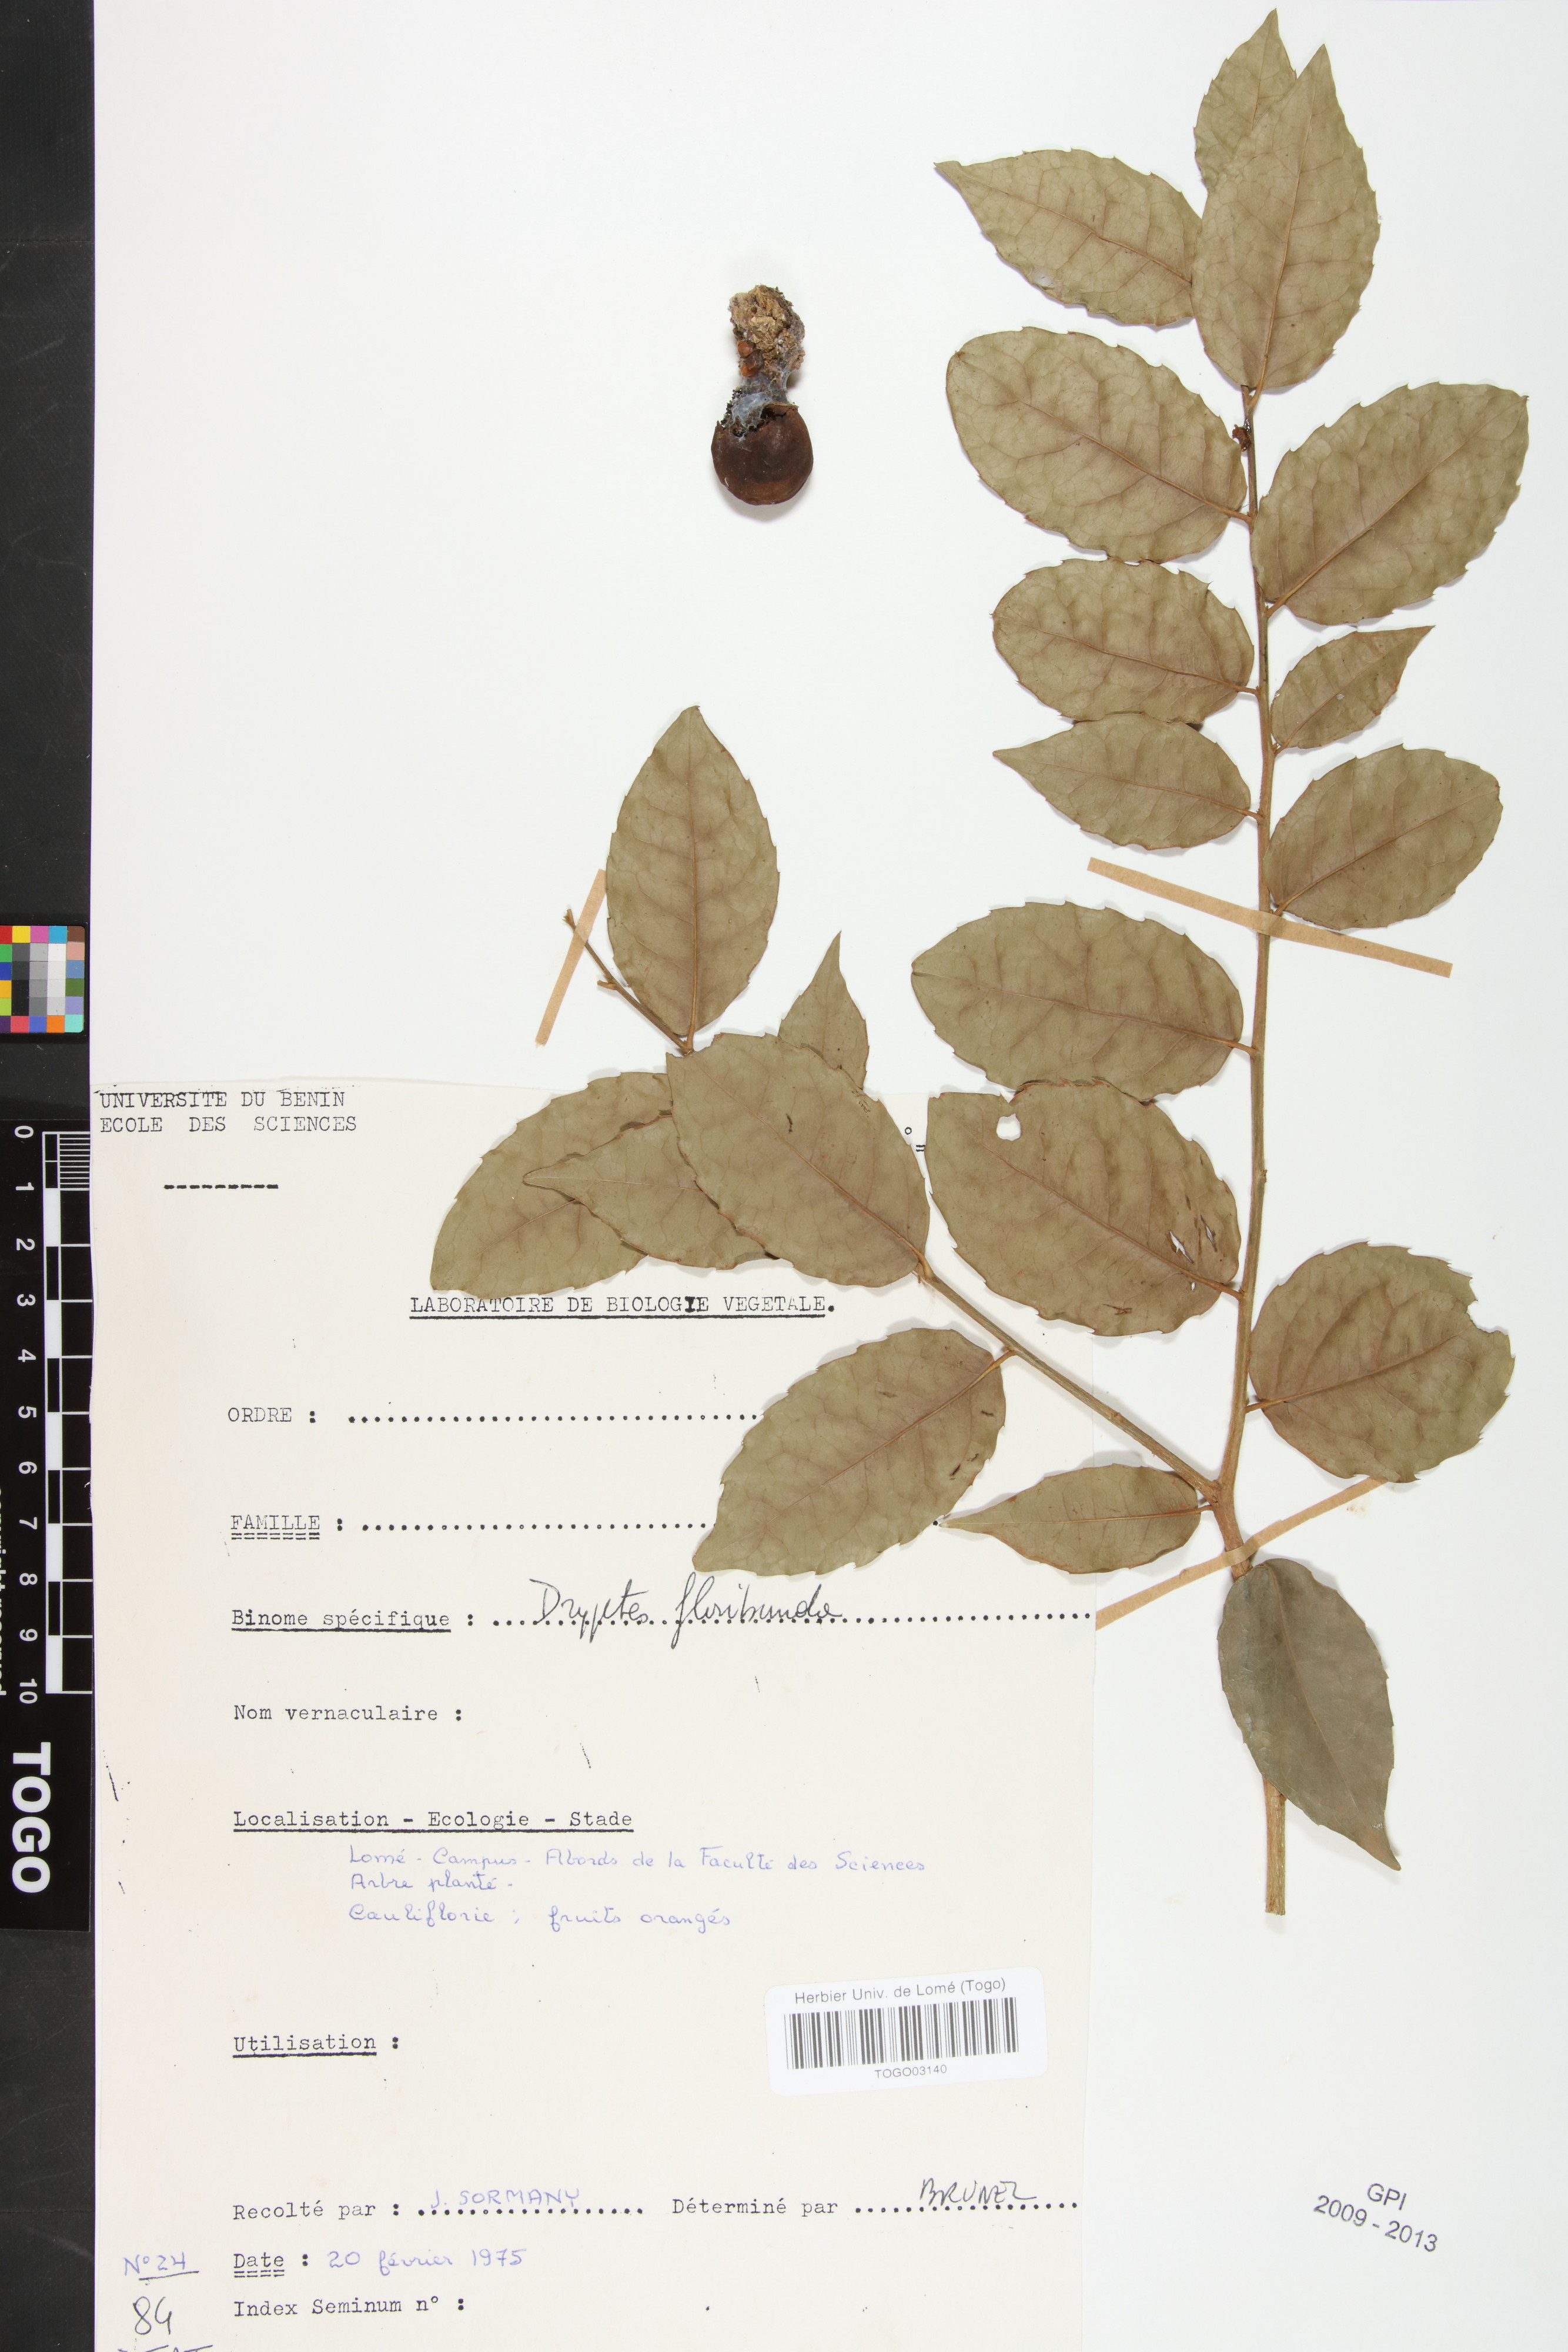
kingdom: Plantae
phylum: Tracheophyta
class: Magnoliopsida
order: Malpighiales
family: Putranjivaceae
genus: Drypetes
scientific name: Drypetes floribunda
